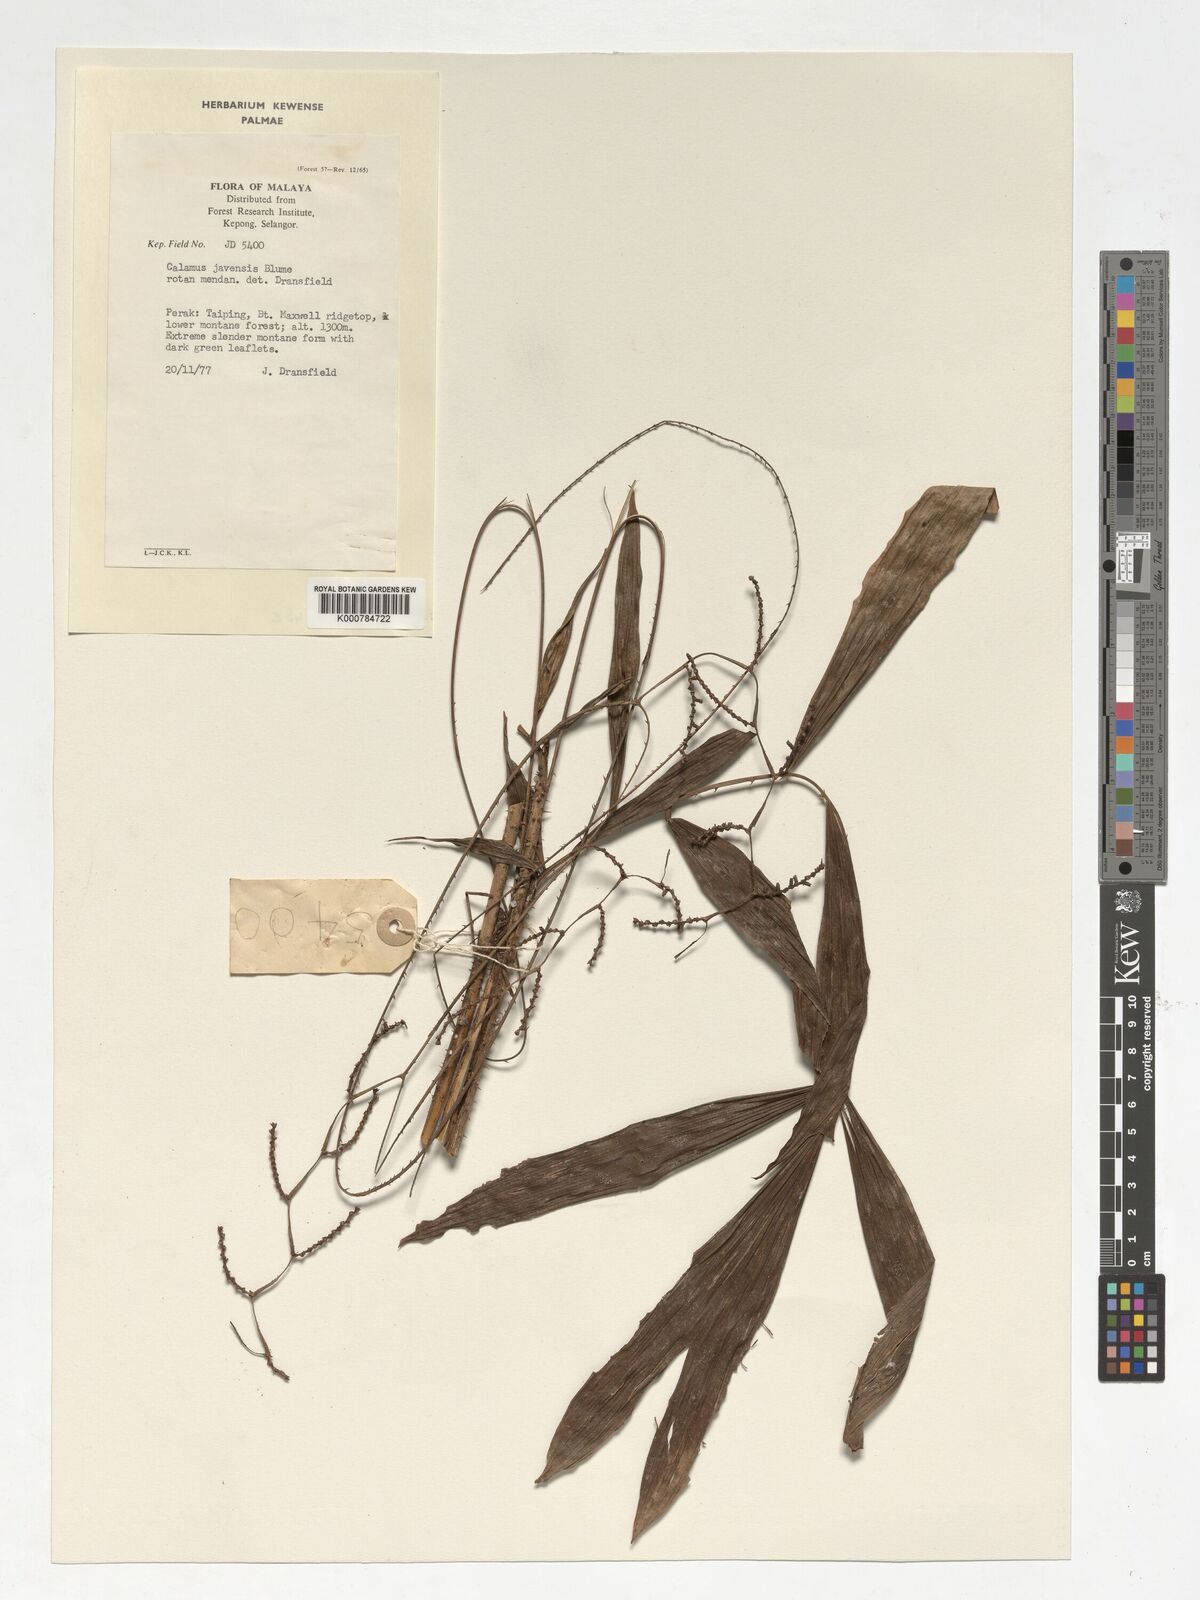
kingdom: Plantae
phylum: Tracheophyta
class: Liliopsida
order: Arecales
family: Arecaceae
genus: Calamus
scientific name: Calamus javensis
